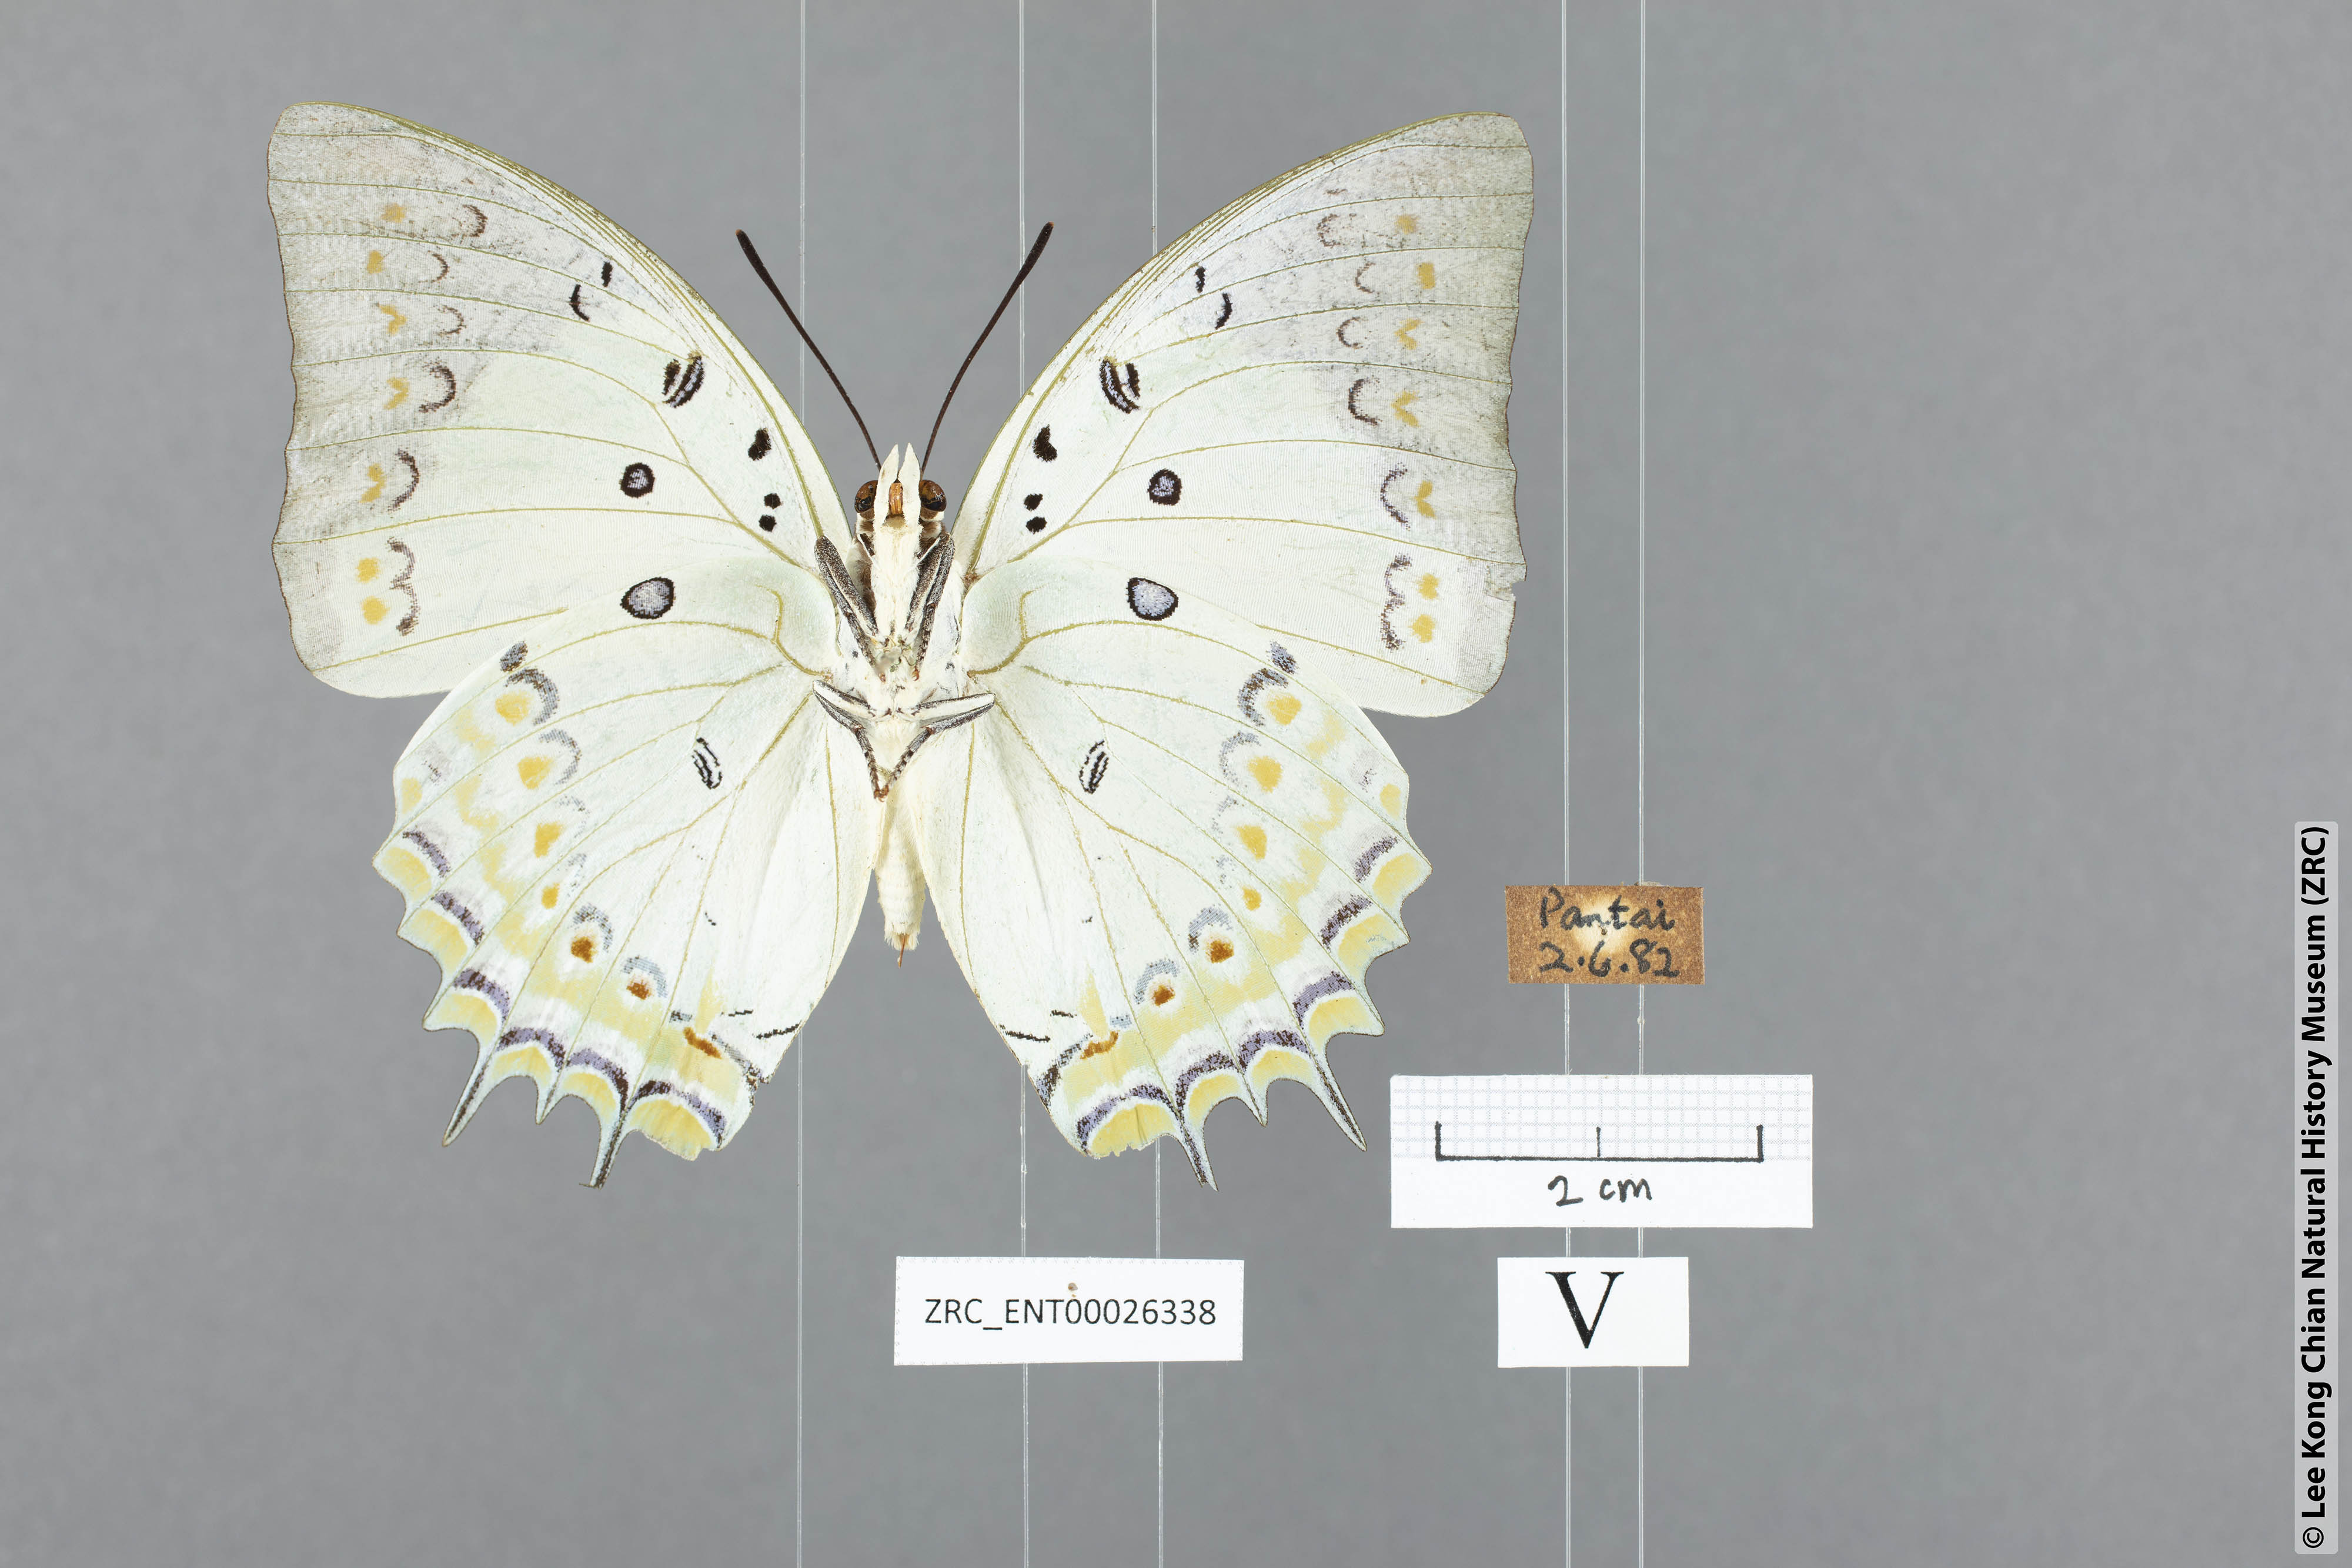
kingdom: Animalia
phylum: Arthropoda
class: Insecta
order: Lepidoptera
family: Nymphalidae
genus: Polyura
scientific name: Polyura delphis
